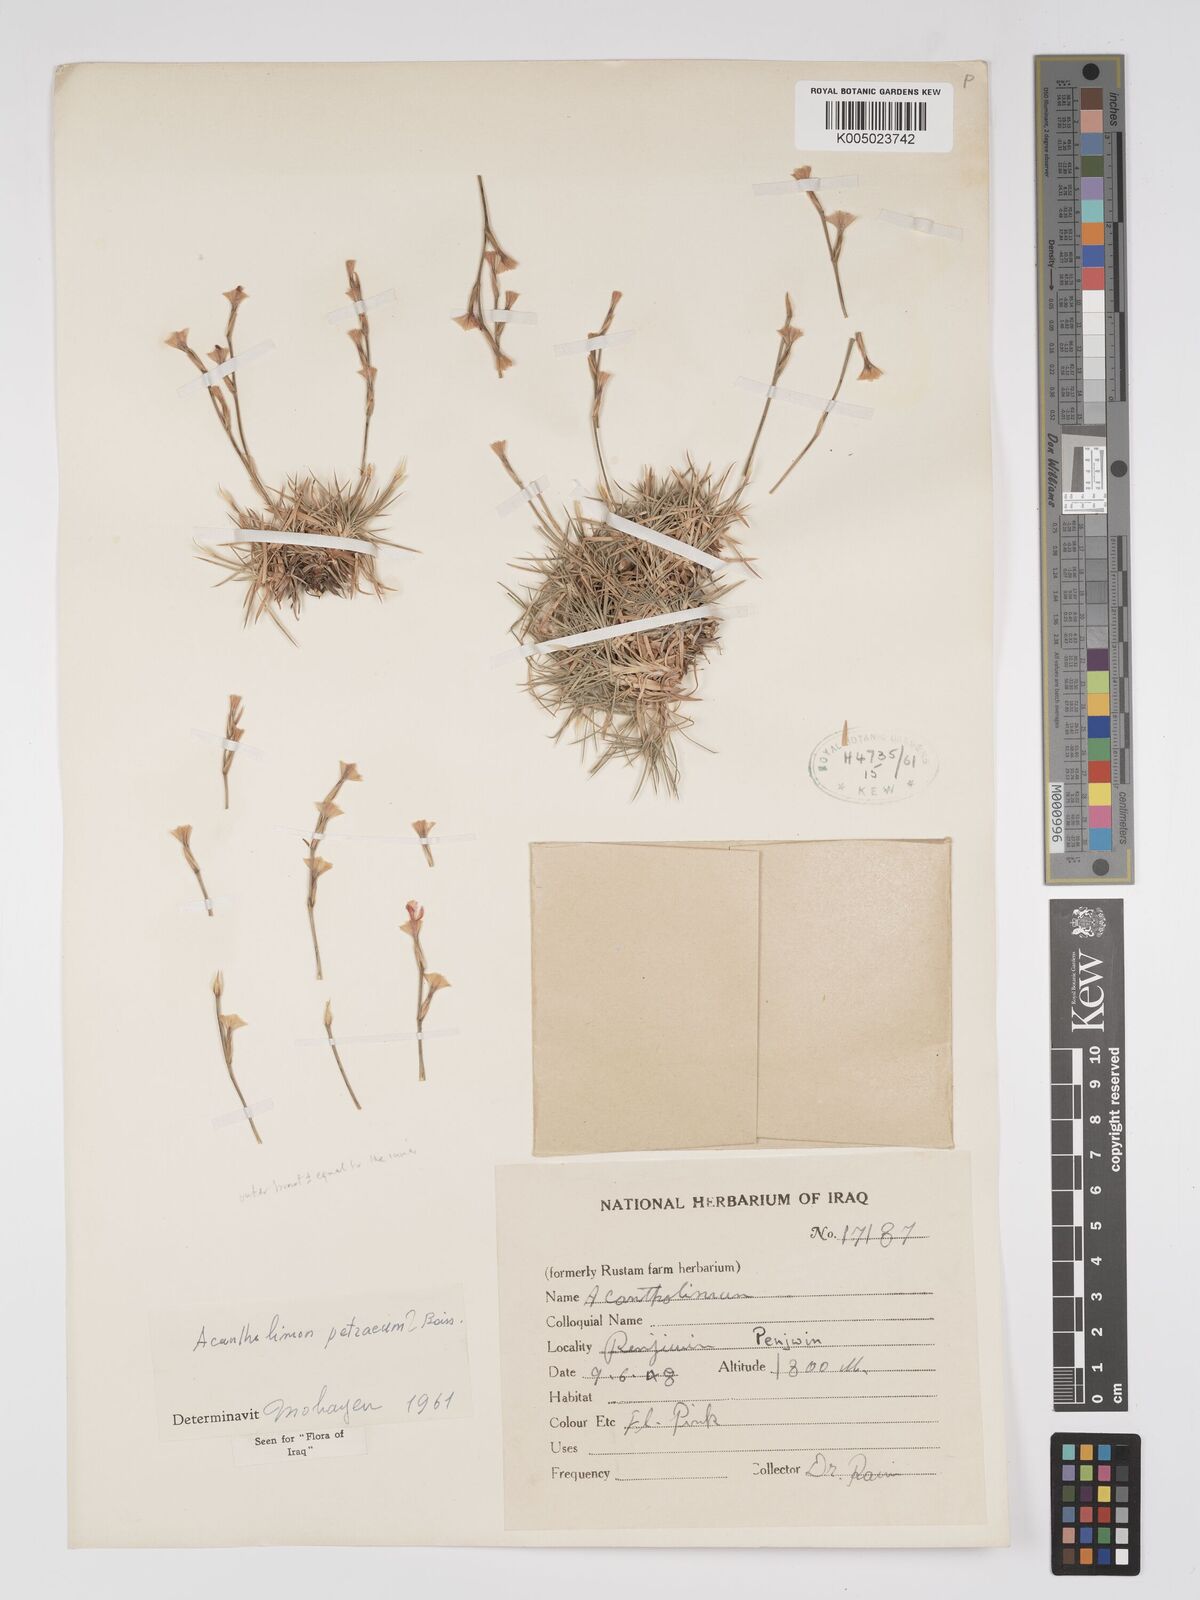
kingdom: Plantae
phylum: Tracheophyta
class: Magnoliopsida
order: Caryophyllales
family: Plumbaginaceae
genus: Acantholimon
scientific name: Acantholimon petraeum
